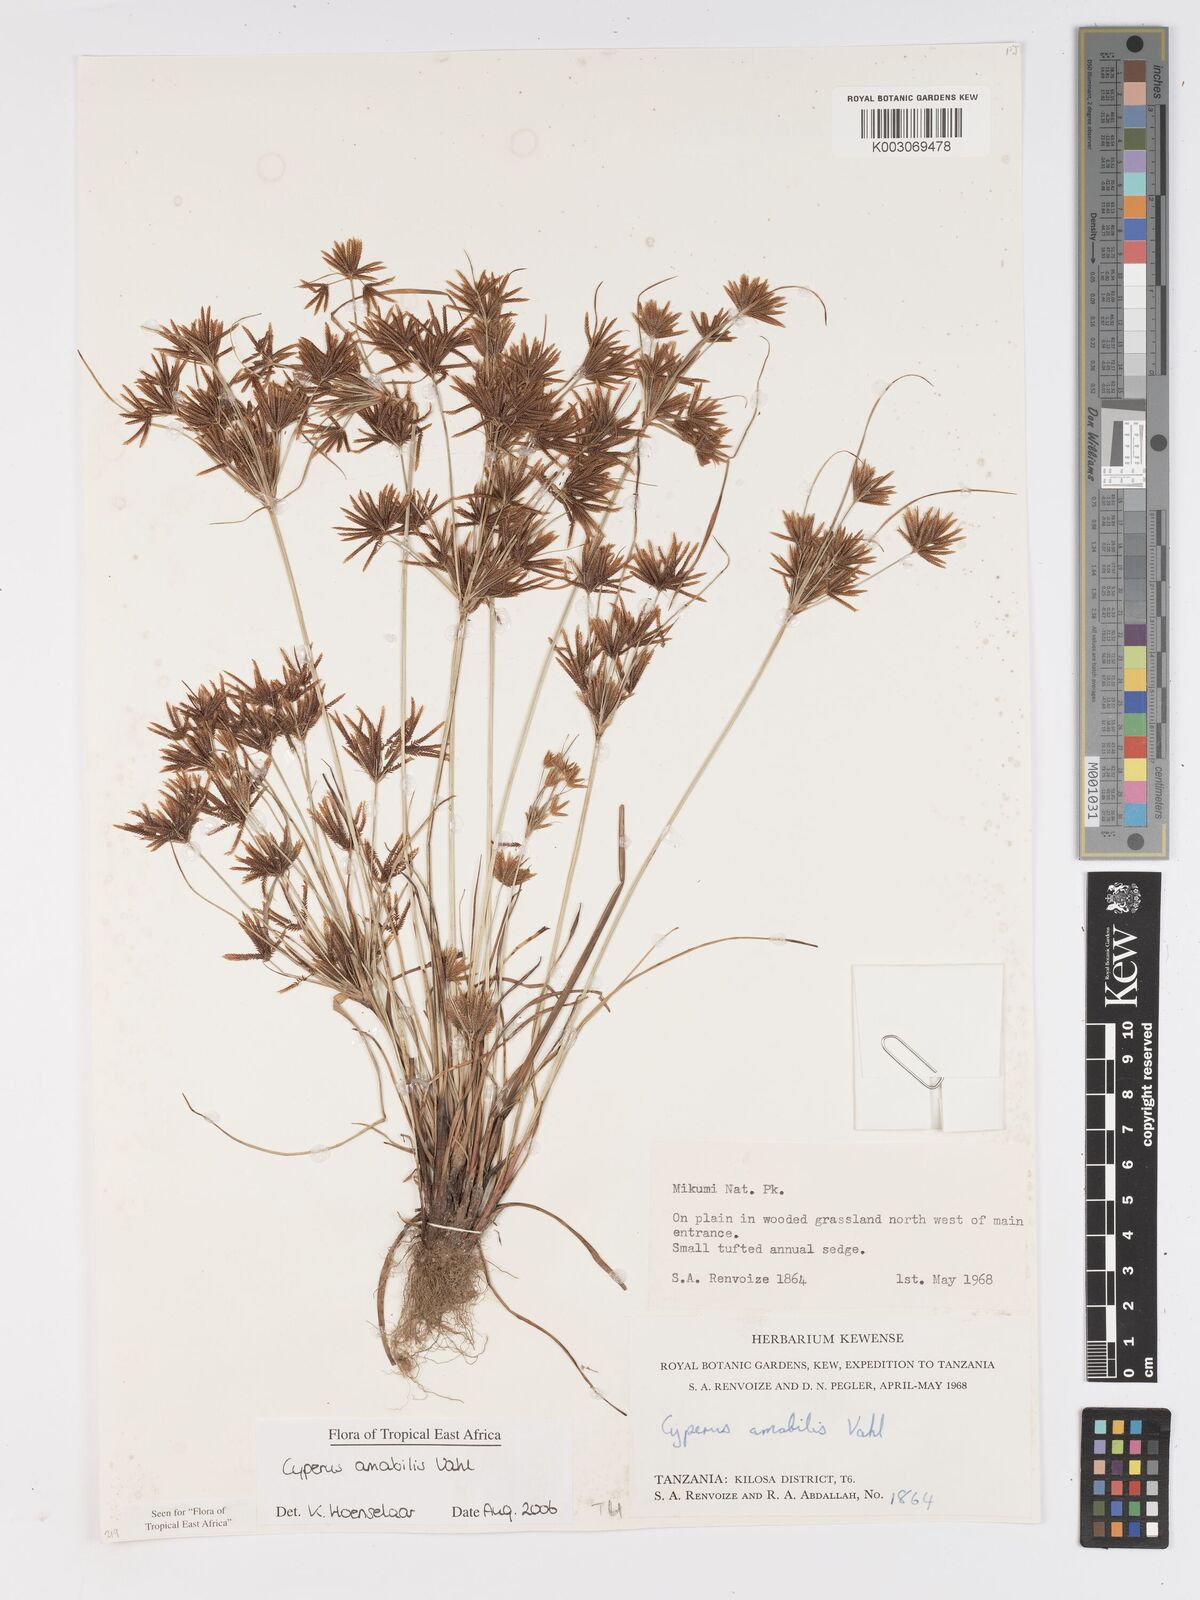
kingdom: Plantae
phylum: Tracheophyta
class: Liliopsida
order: Poales
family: Cyperaceae
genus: Cyperus
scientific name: Cyperus amabilis
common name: Foothill flat sedge
